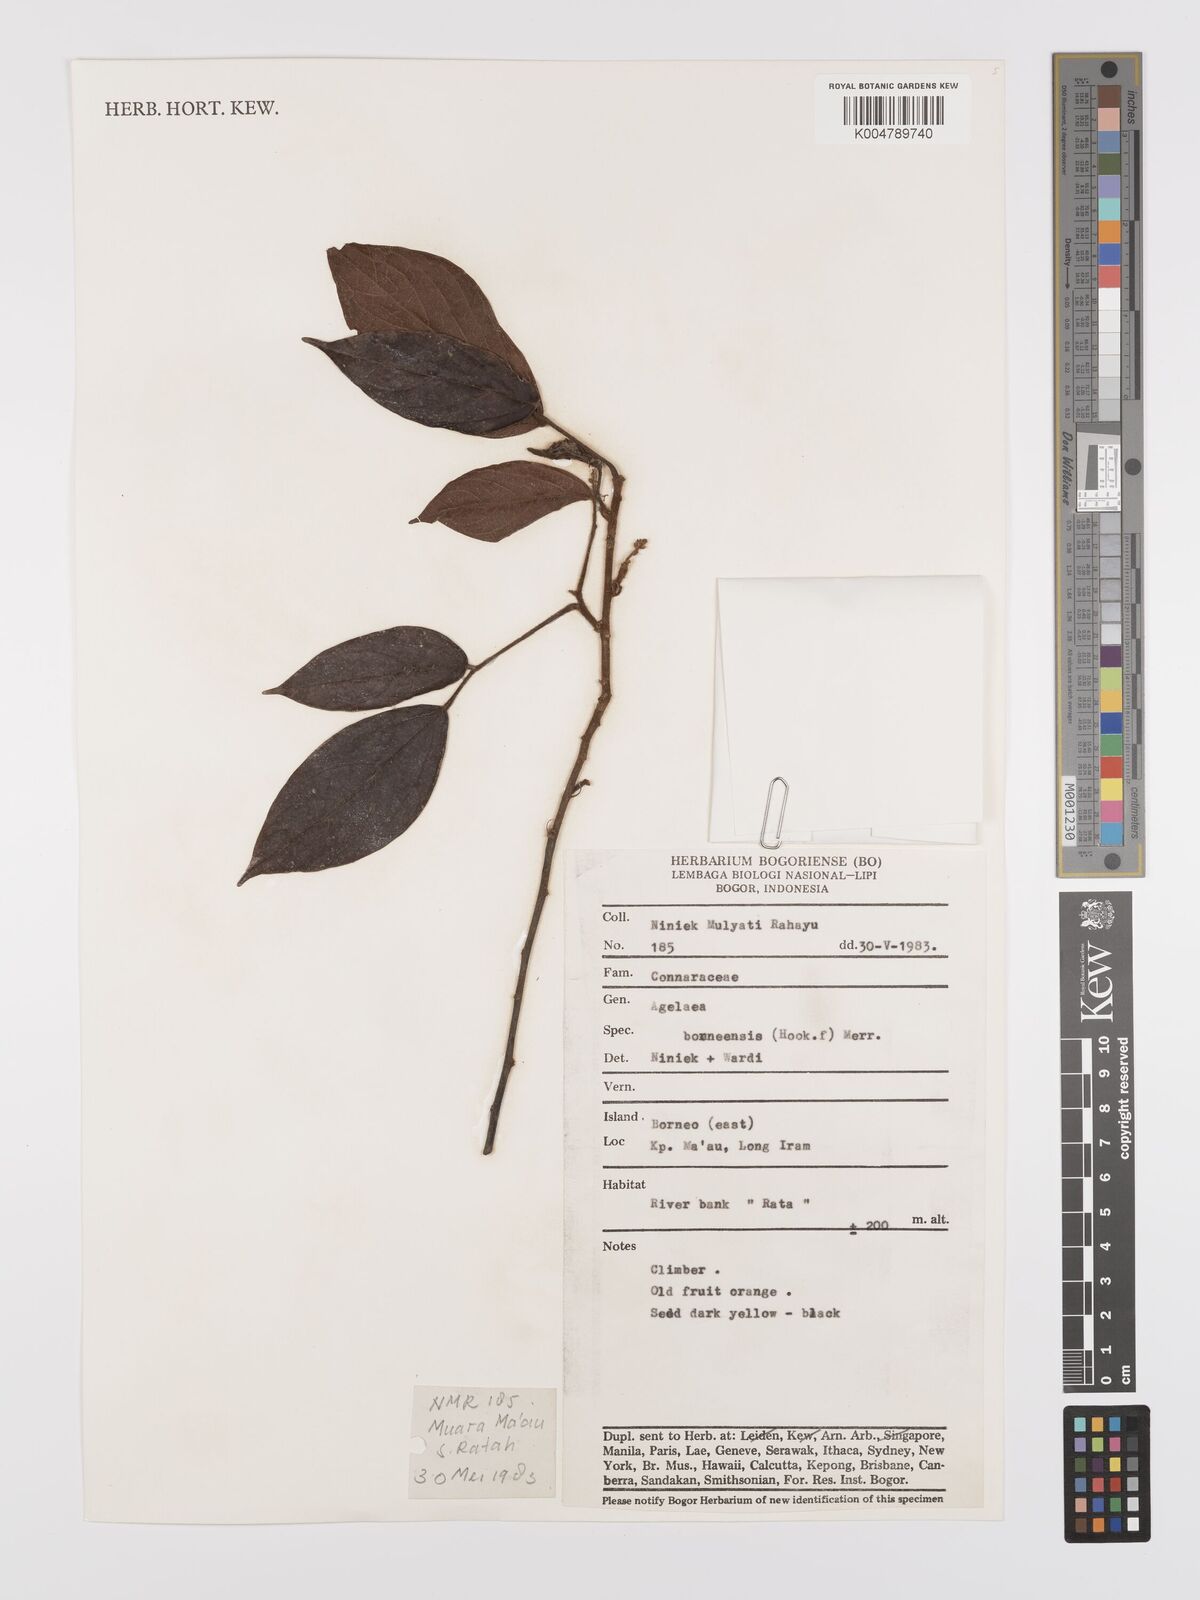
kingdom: Plantae
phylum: Tracheophyta
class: Magnoliopsida
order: Oxalidales
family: Connaraceae
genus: Agelaea
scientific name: Agelaea borneensis
